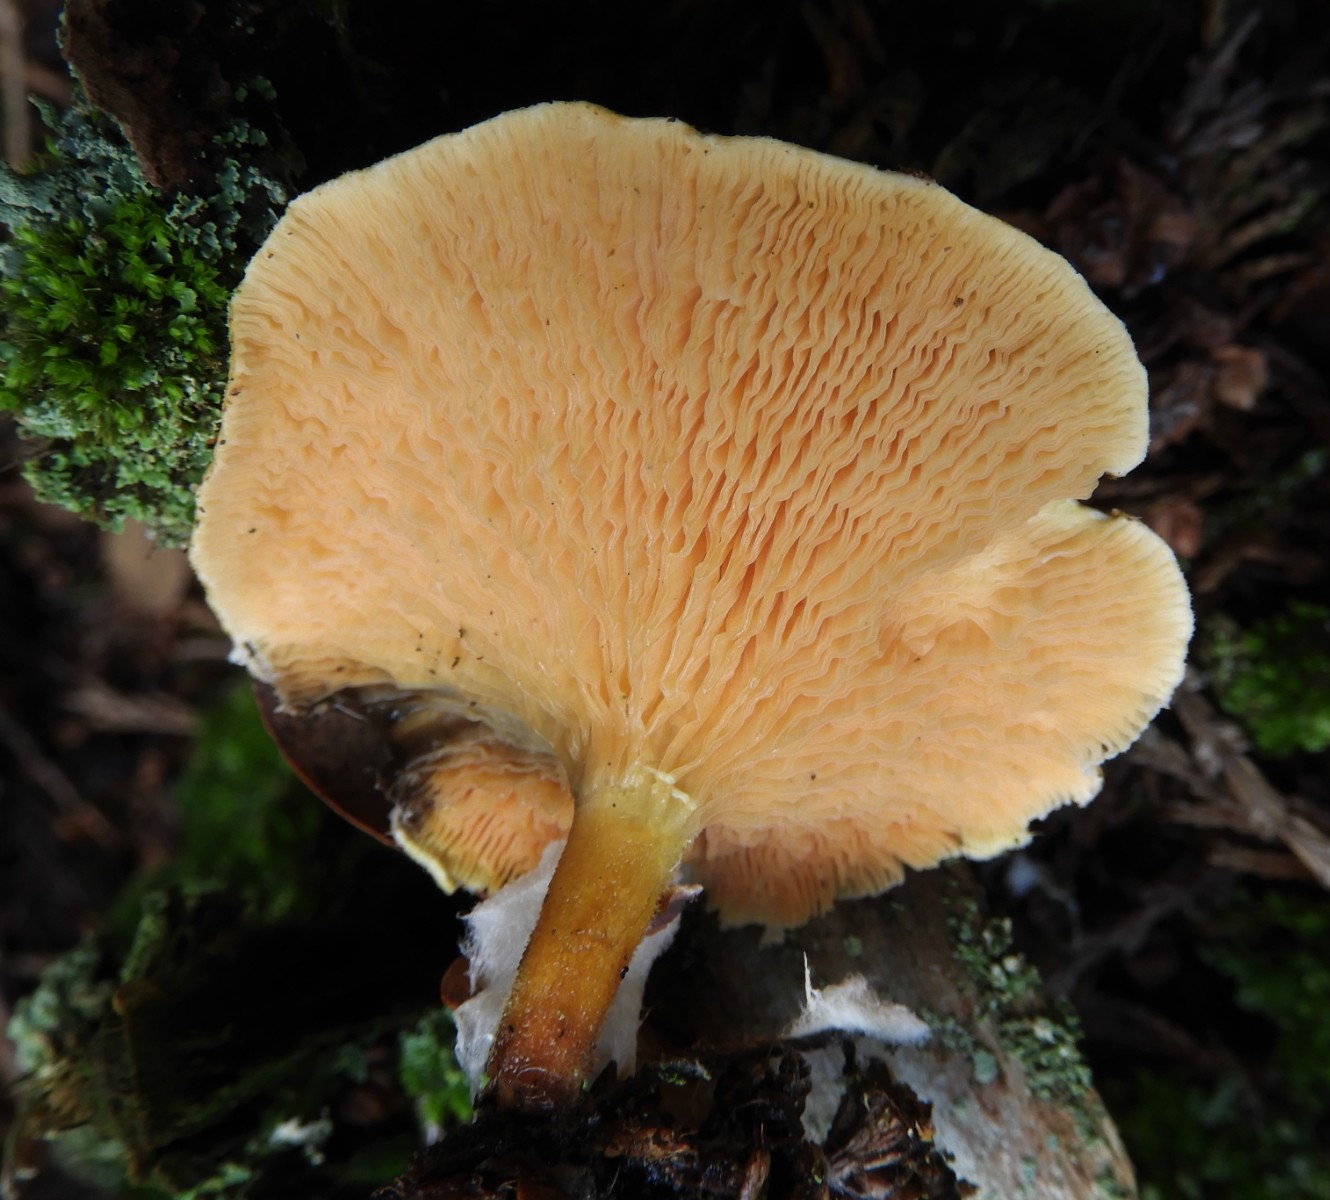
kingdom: Fungi
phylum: Basidiomycota
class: Agaricomycetes
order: Boletales
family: Hygrophoropsidaceae
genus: Hygrophoropsis
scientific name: Hygrophoropsis aurantiaca
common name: almindelig orangekantarel
